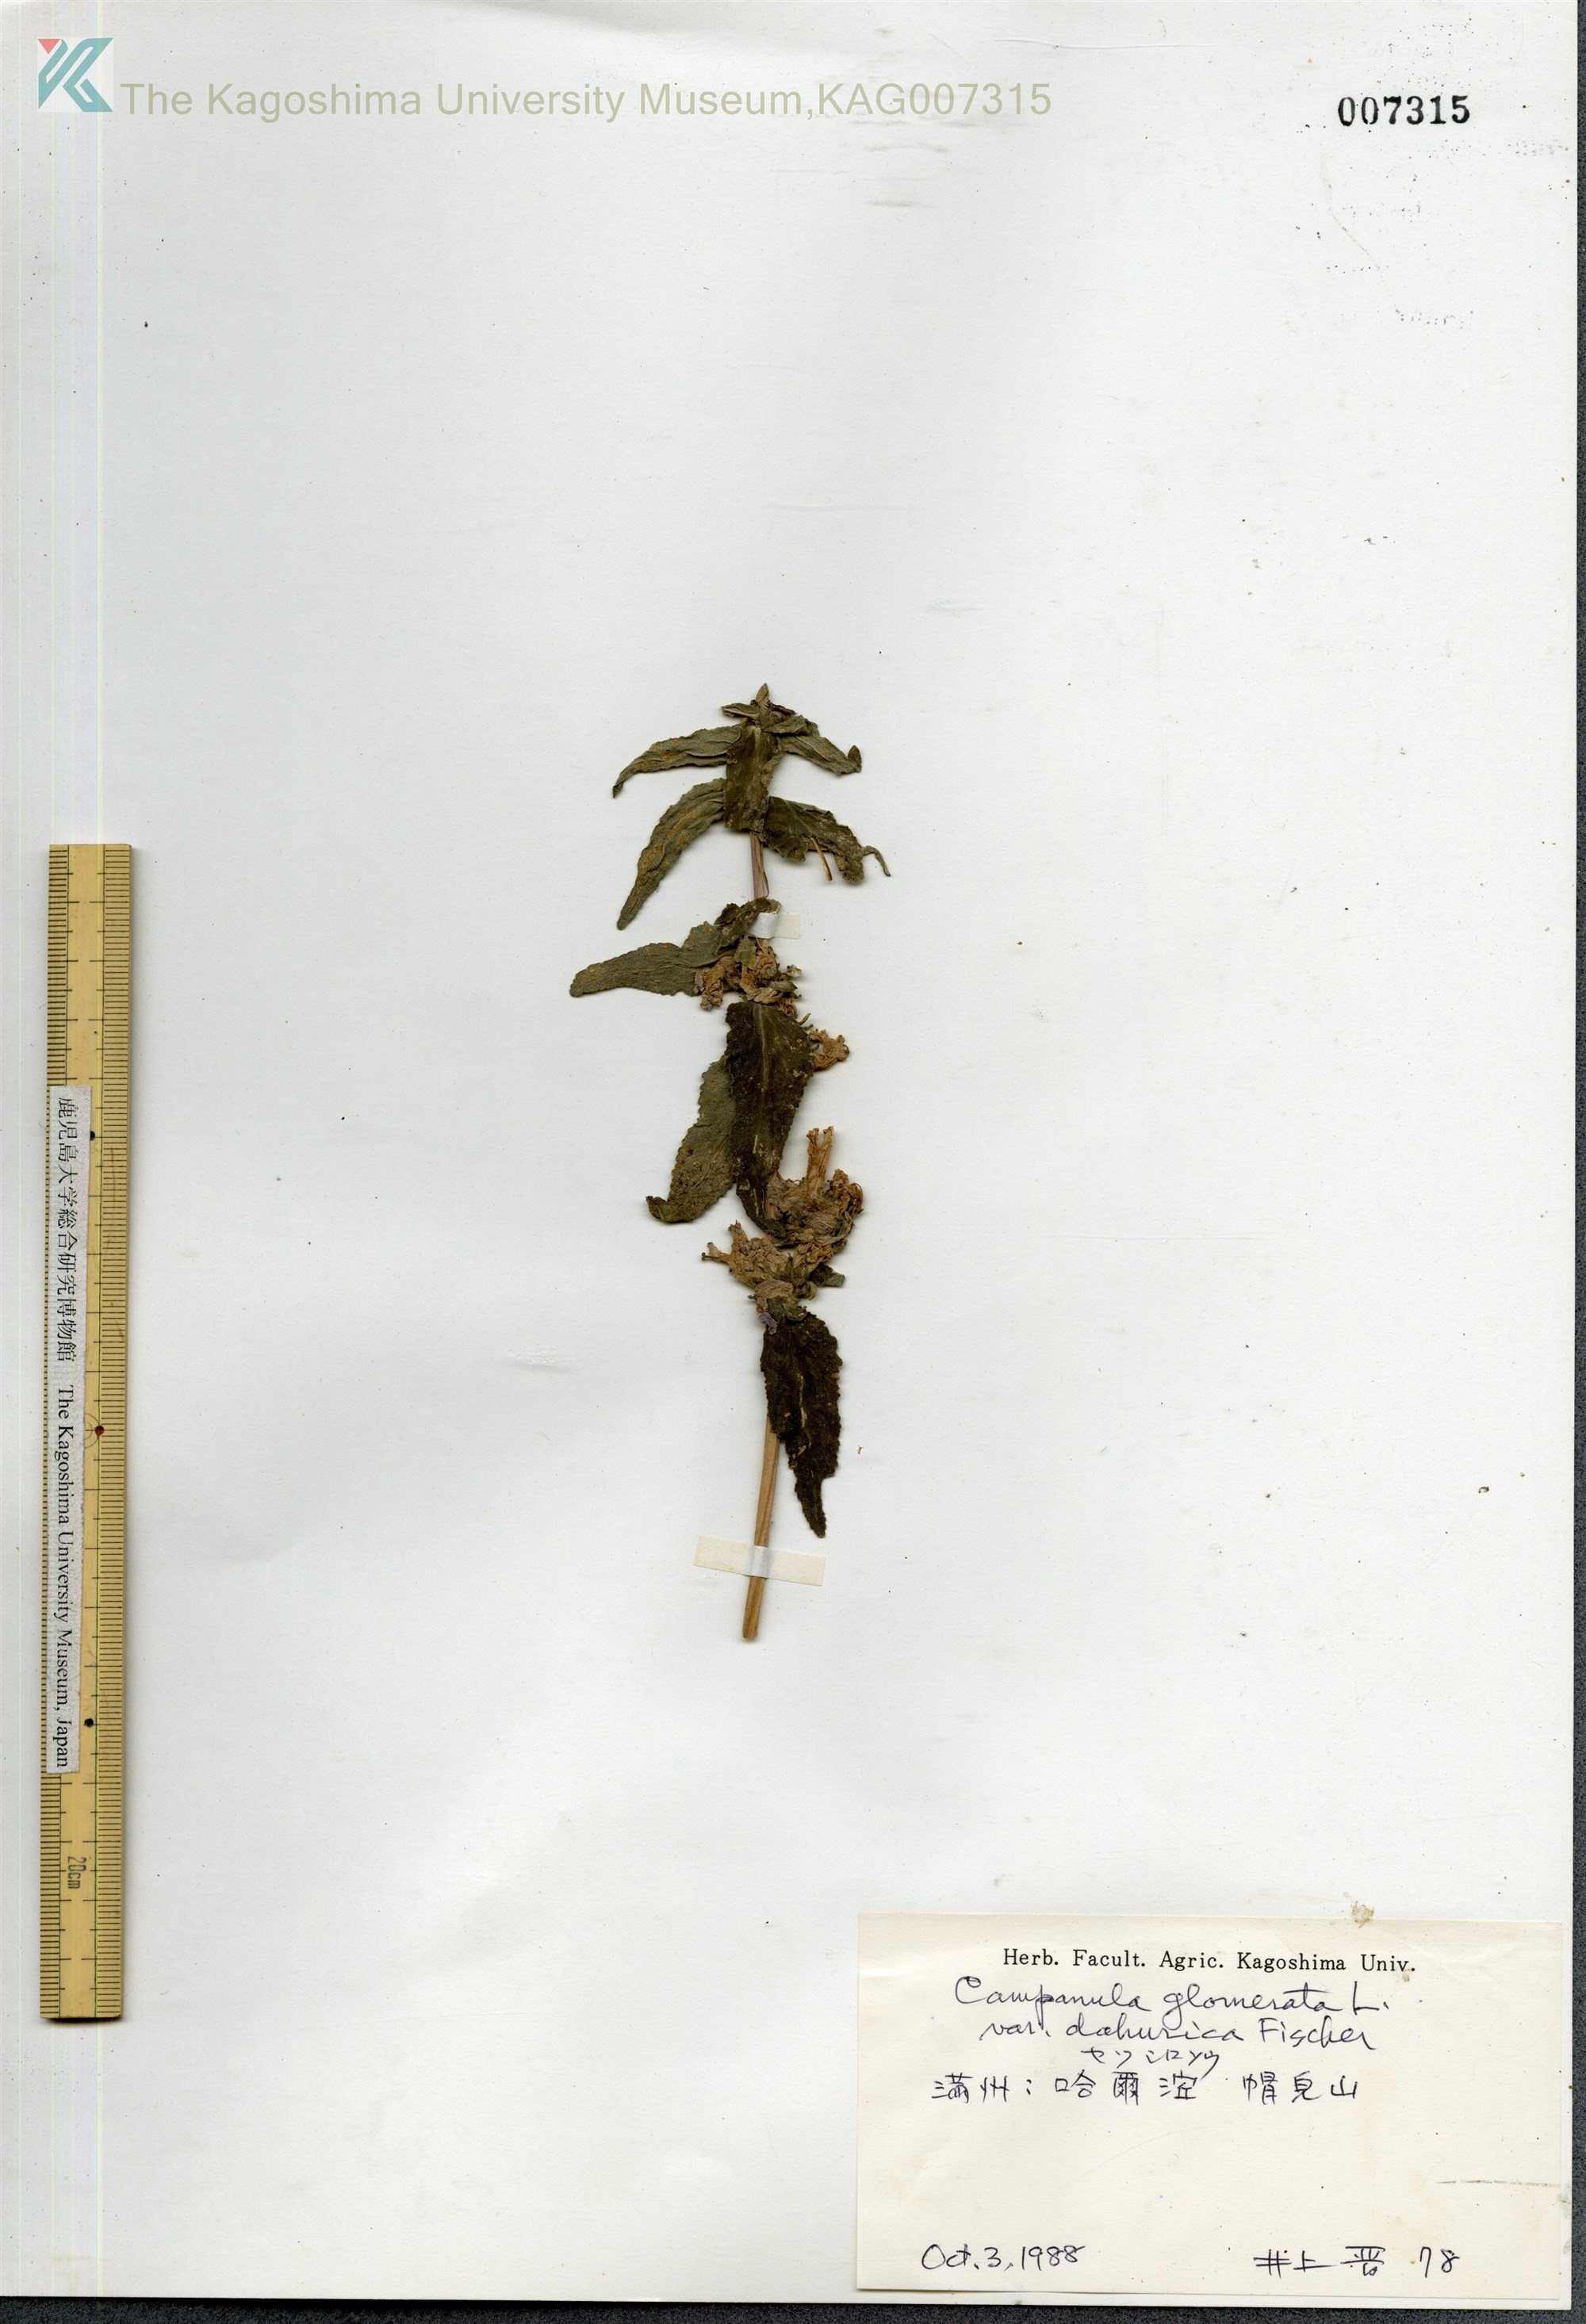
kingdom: Plantae
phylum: Tracheophyta
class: Magnoliopsida
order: Asterales
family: Campanulaceae
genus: Campanula
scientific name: Campanula glomerata
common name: Clustered bellflower
